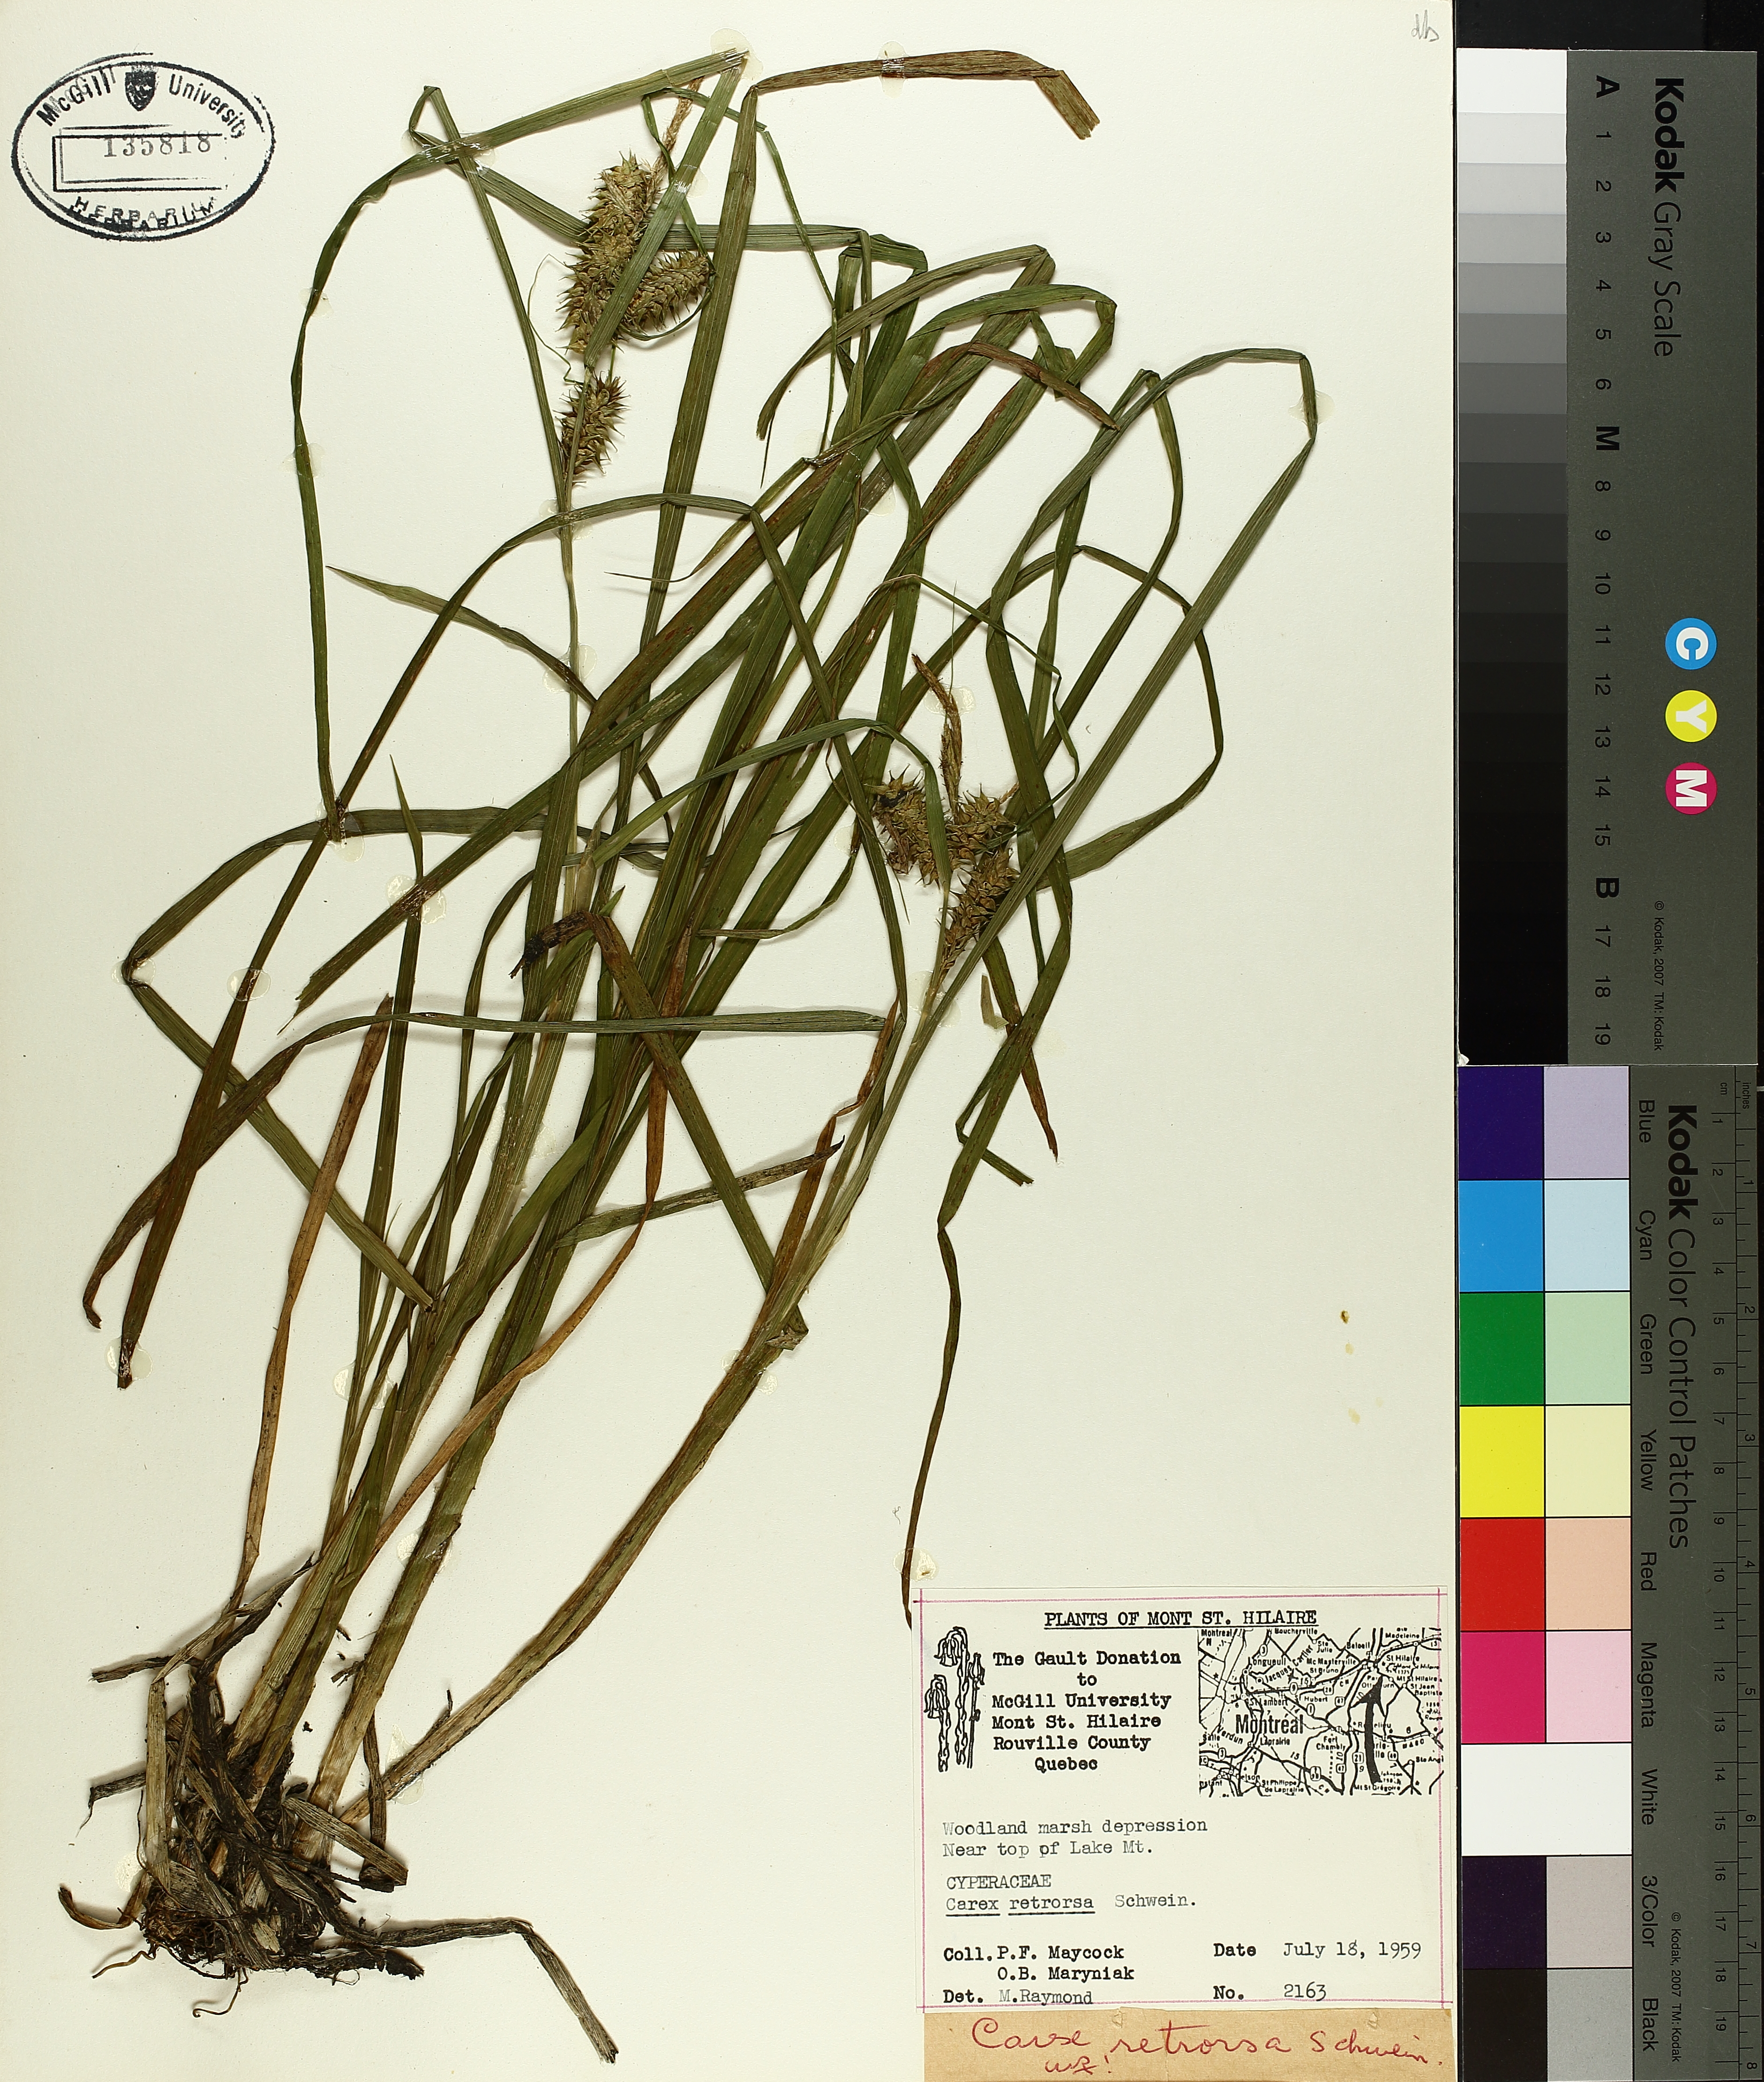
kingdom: Plantae
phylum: Tracheophyta
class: Liliopsida
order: Poales
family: Cyperaceae
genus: Carex
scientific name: Carex retrorsa
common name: Knot-sheath sedge
